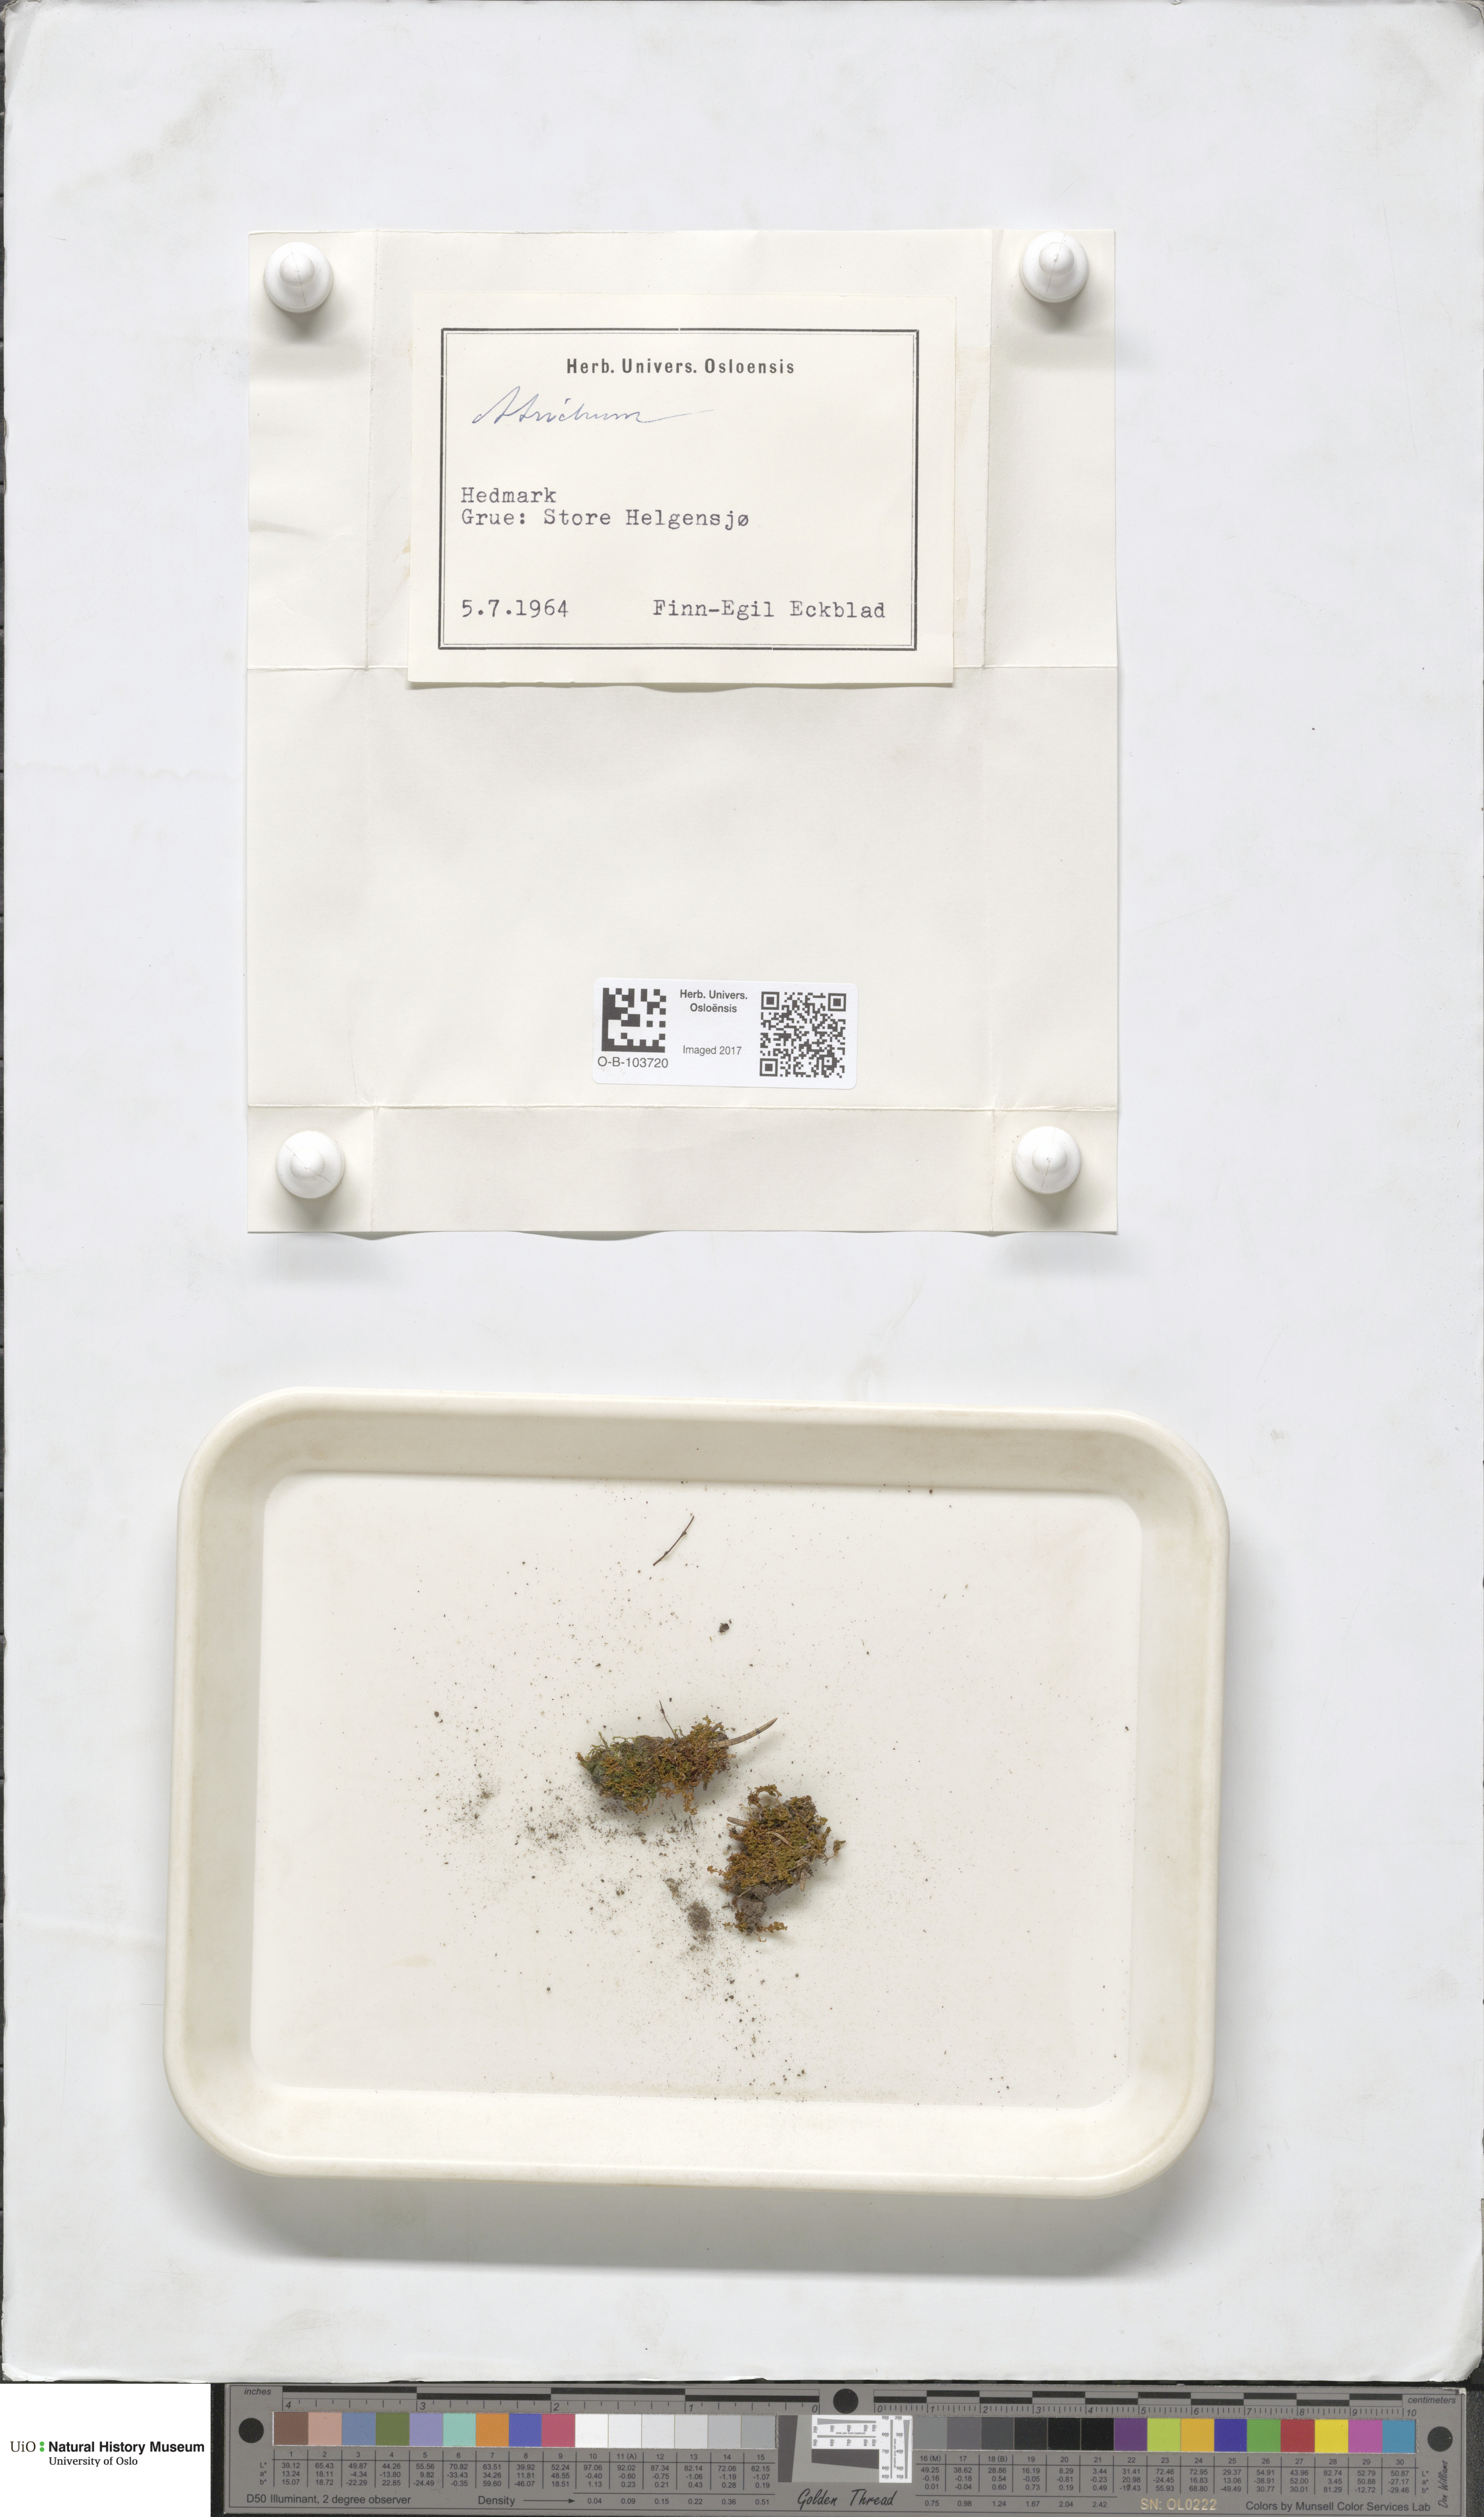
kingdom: Plantae
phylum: Bryophyta
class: Polytrichopsida
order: Polytrichales
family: Polytrichaceae
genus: Atrichum
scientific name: Atrichum
